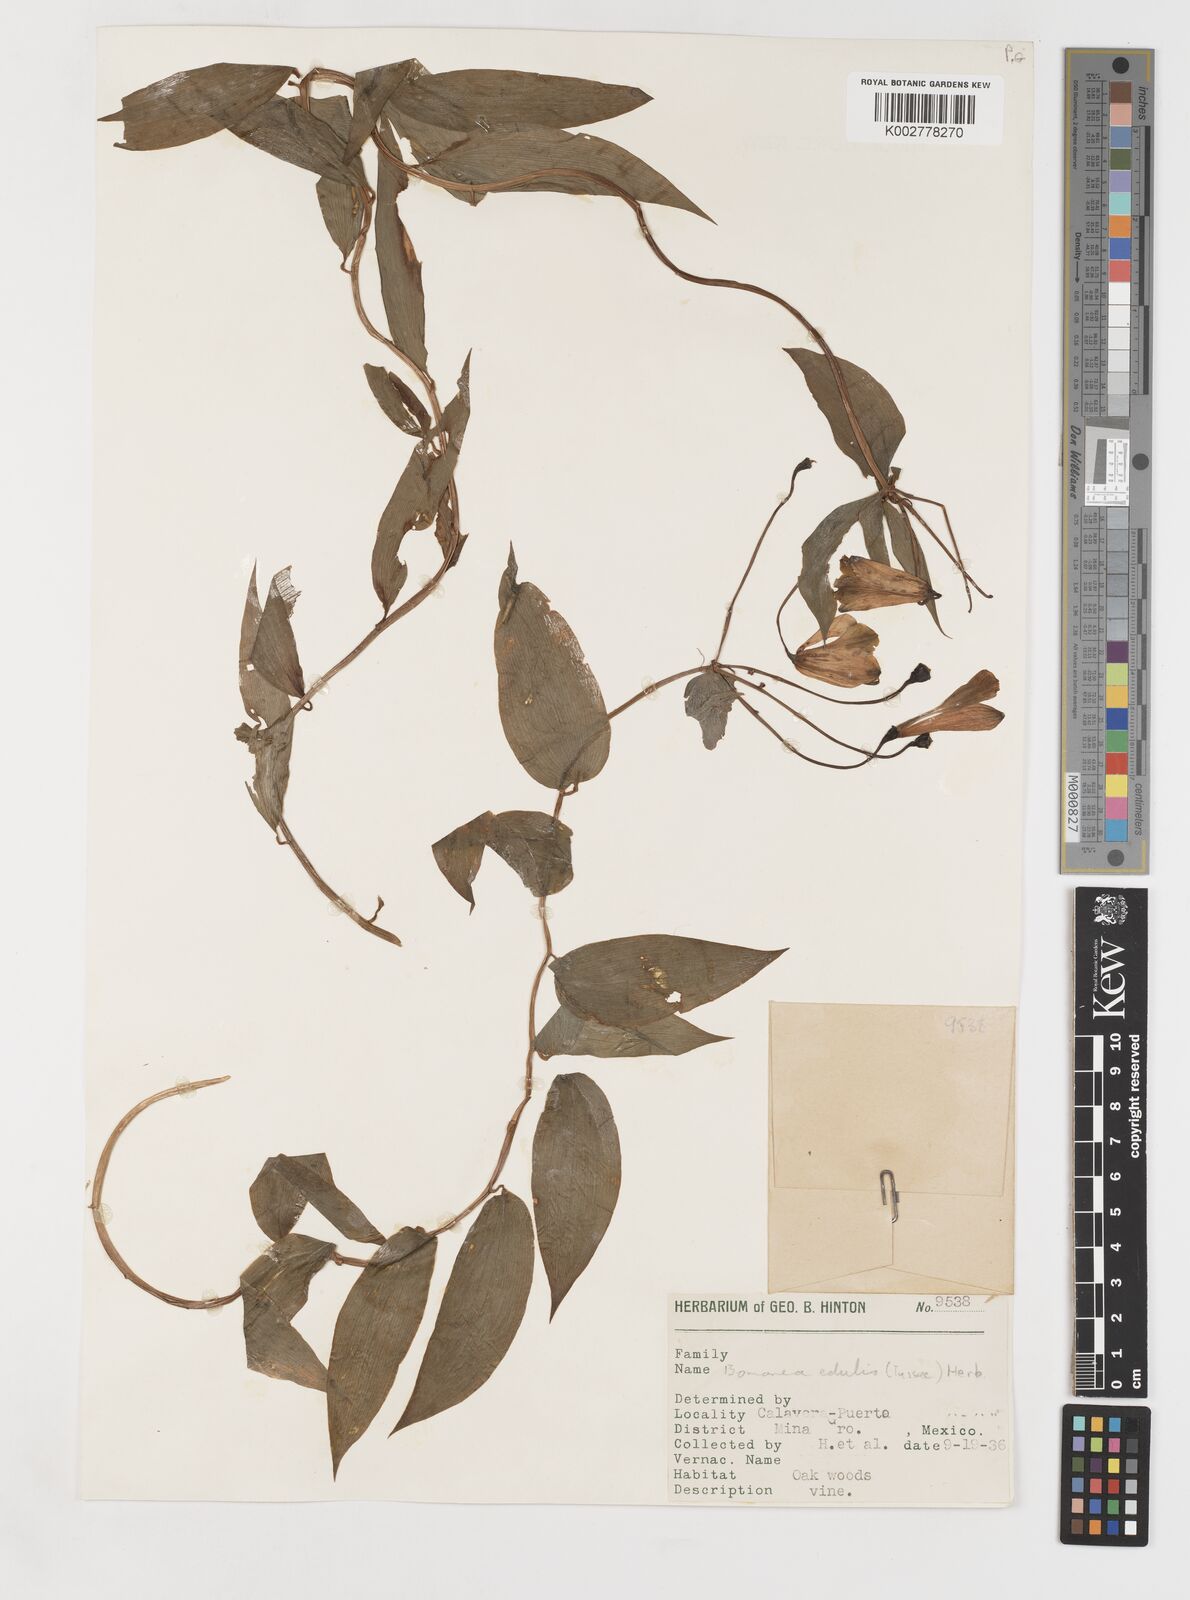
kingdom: Plantae
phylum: Tracheophyta
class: Liliopsida
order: Liliales
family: Alstroemeriaceae
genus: Bomarea
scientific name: Bomarea edulis
